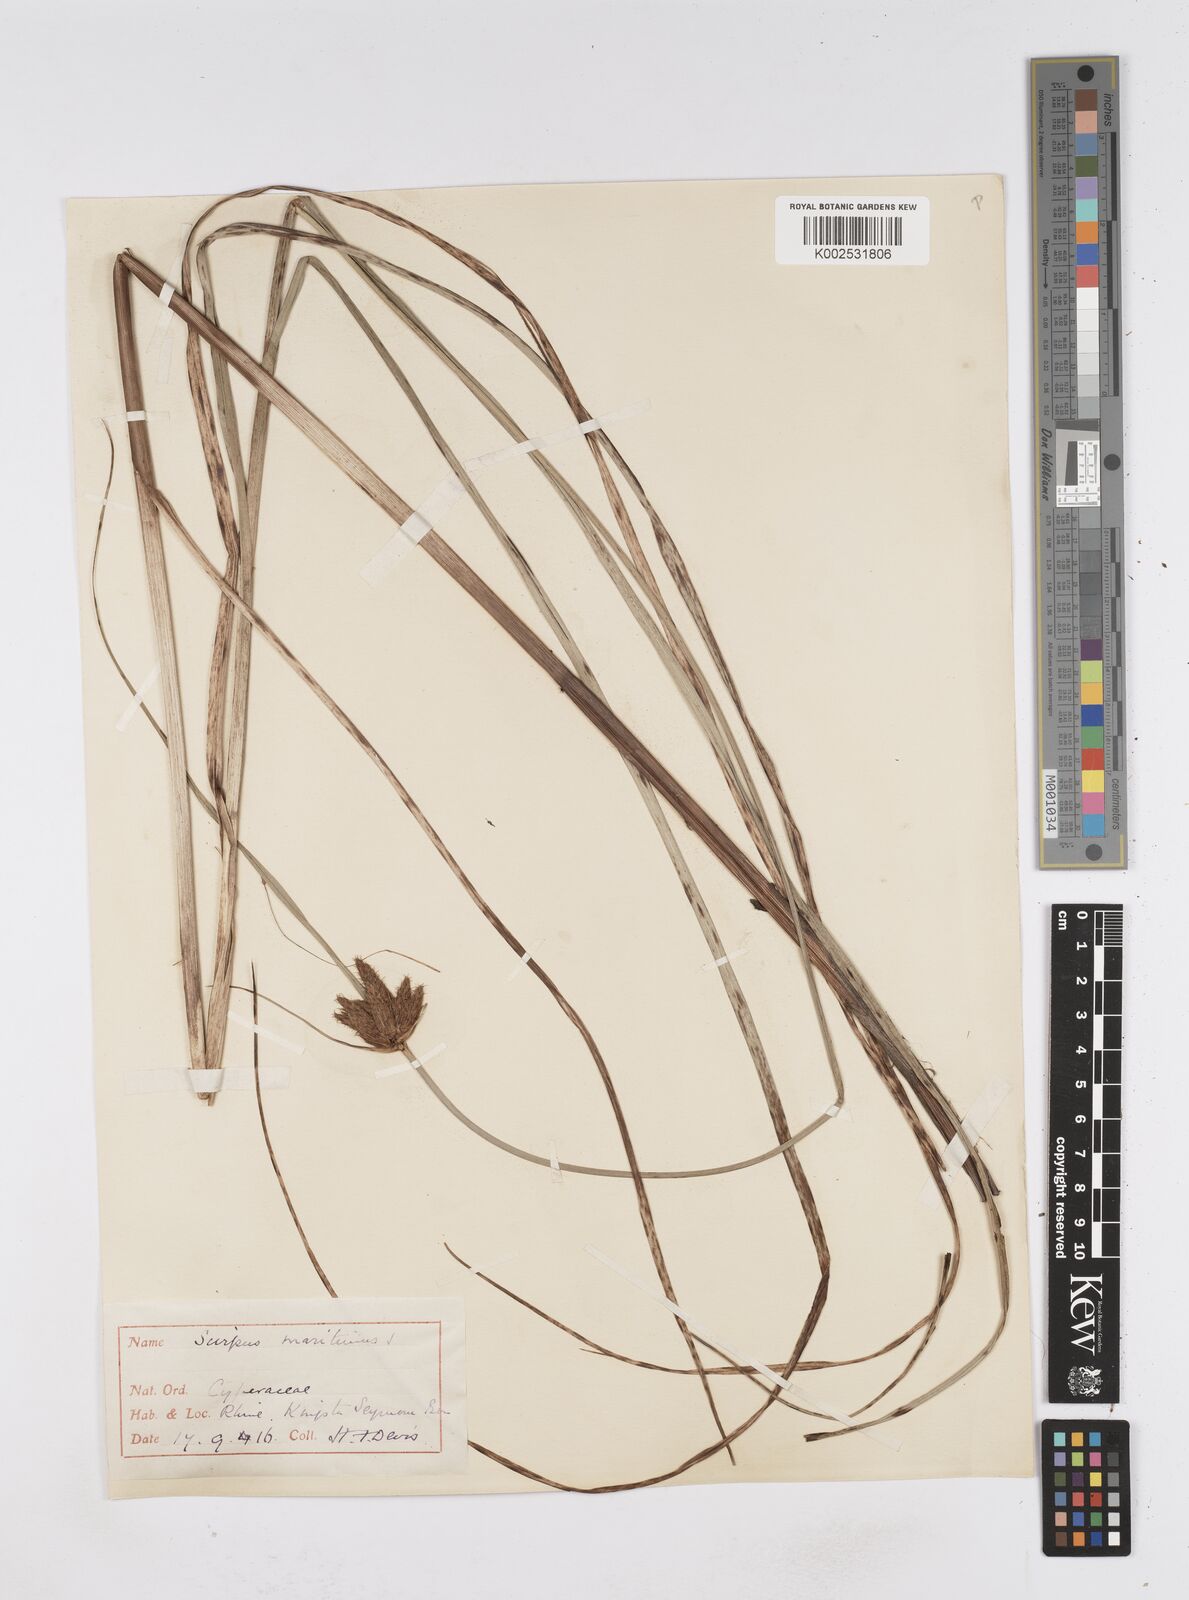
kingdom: Plantae
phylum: Tracheophyta
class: Liliopsida
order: Poales
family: Cyperaceae
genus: Bolboschoenus
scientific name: Bolboschoenus maritimus
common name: Sea club-rush
